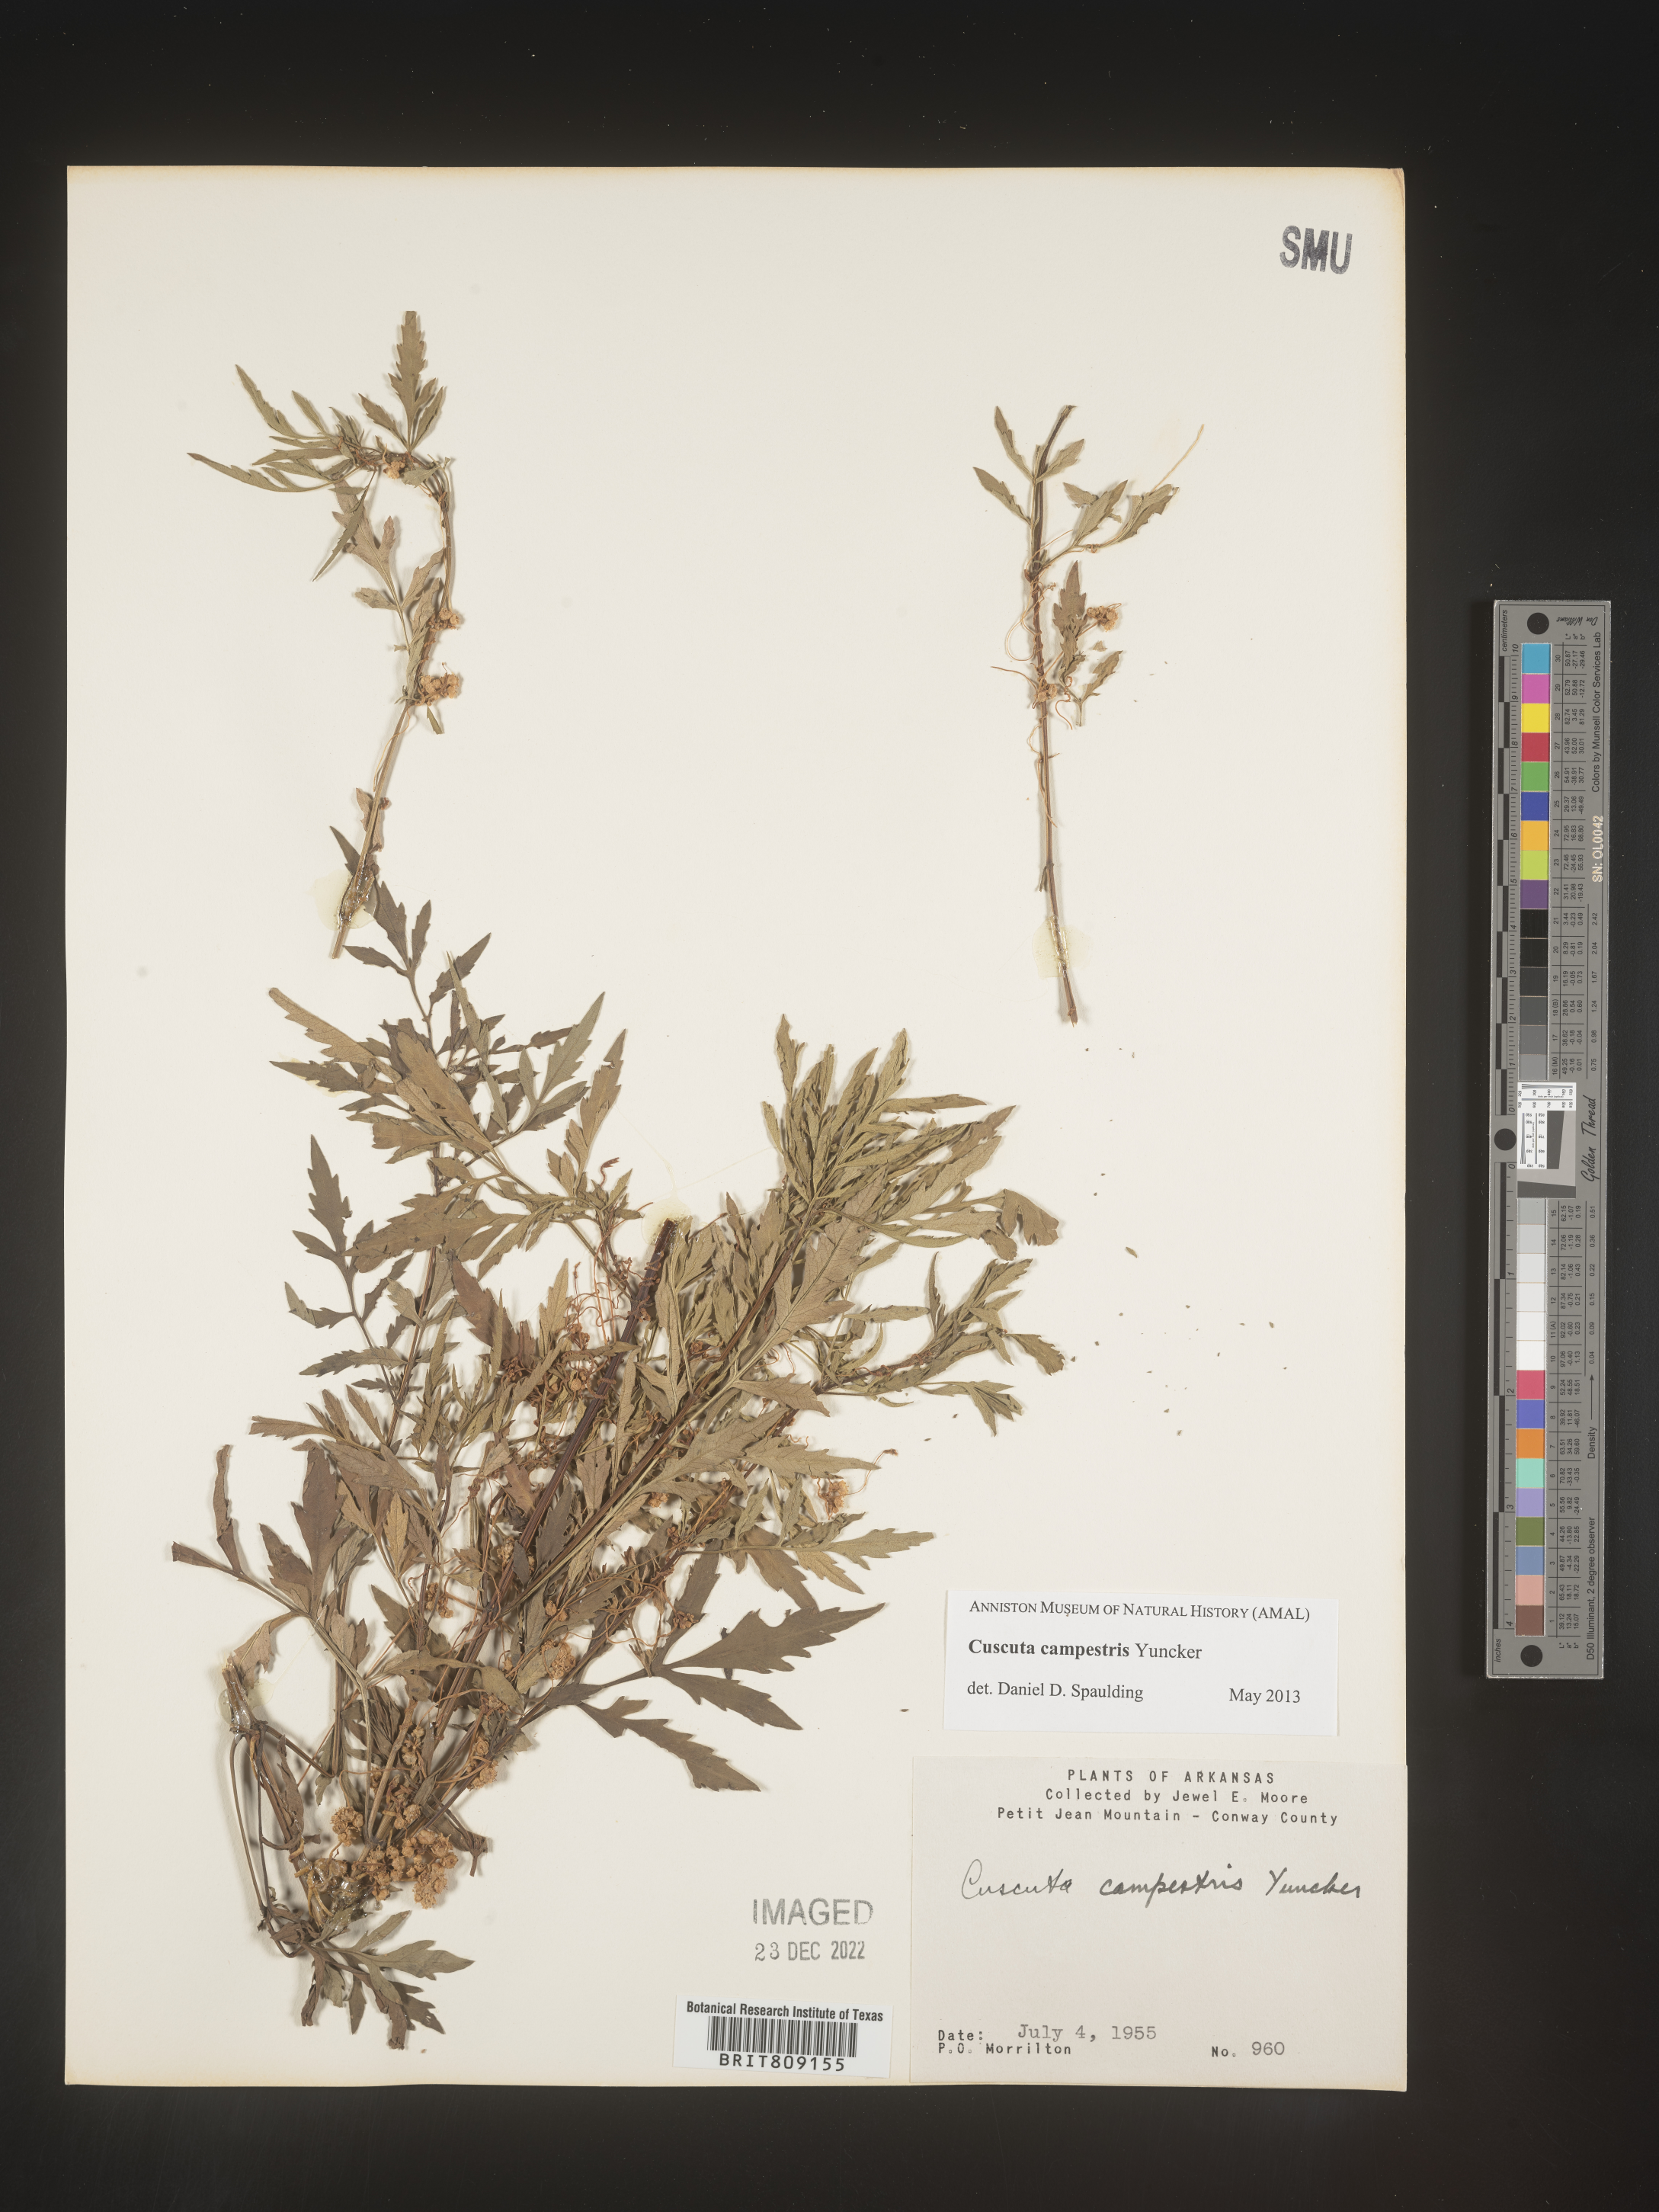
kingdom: Plantae
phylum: Tracheophyta
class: Magnoliopsida
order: Solanales
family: Convolvulaceae
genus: Cuscuta
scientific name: Cuscuta campestris
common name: Yellow dodder
